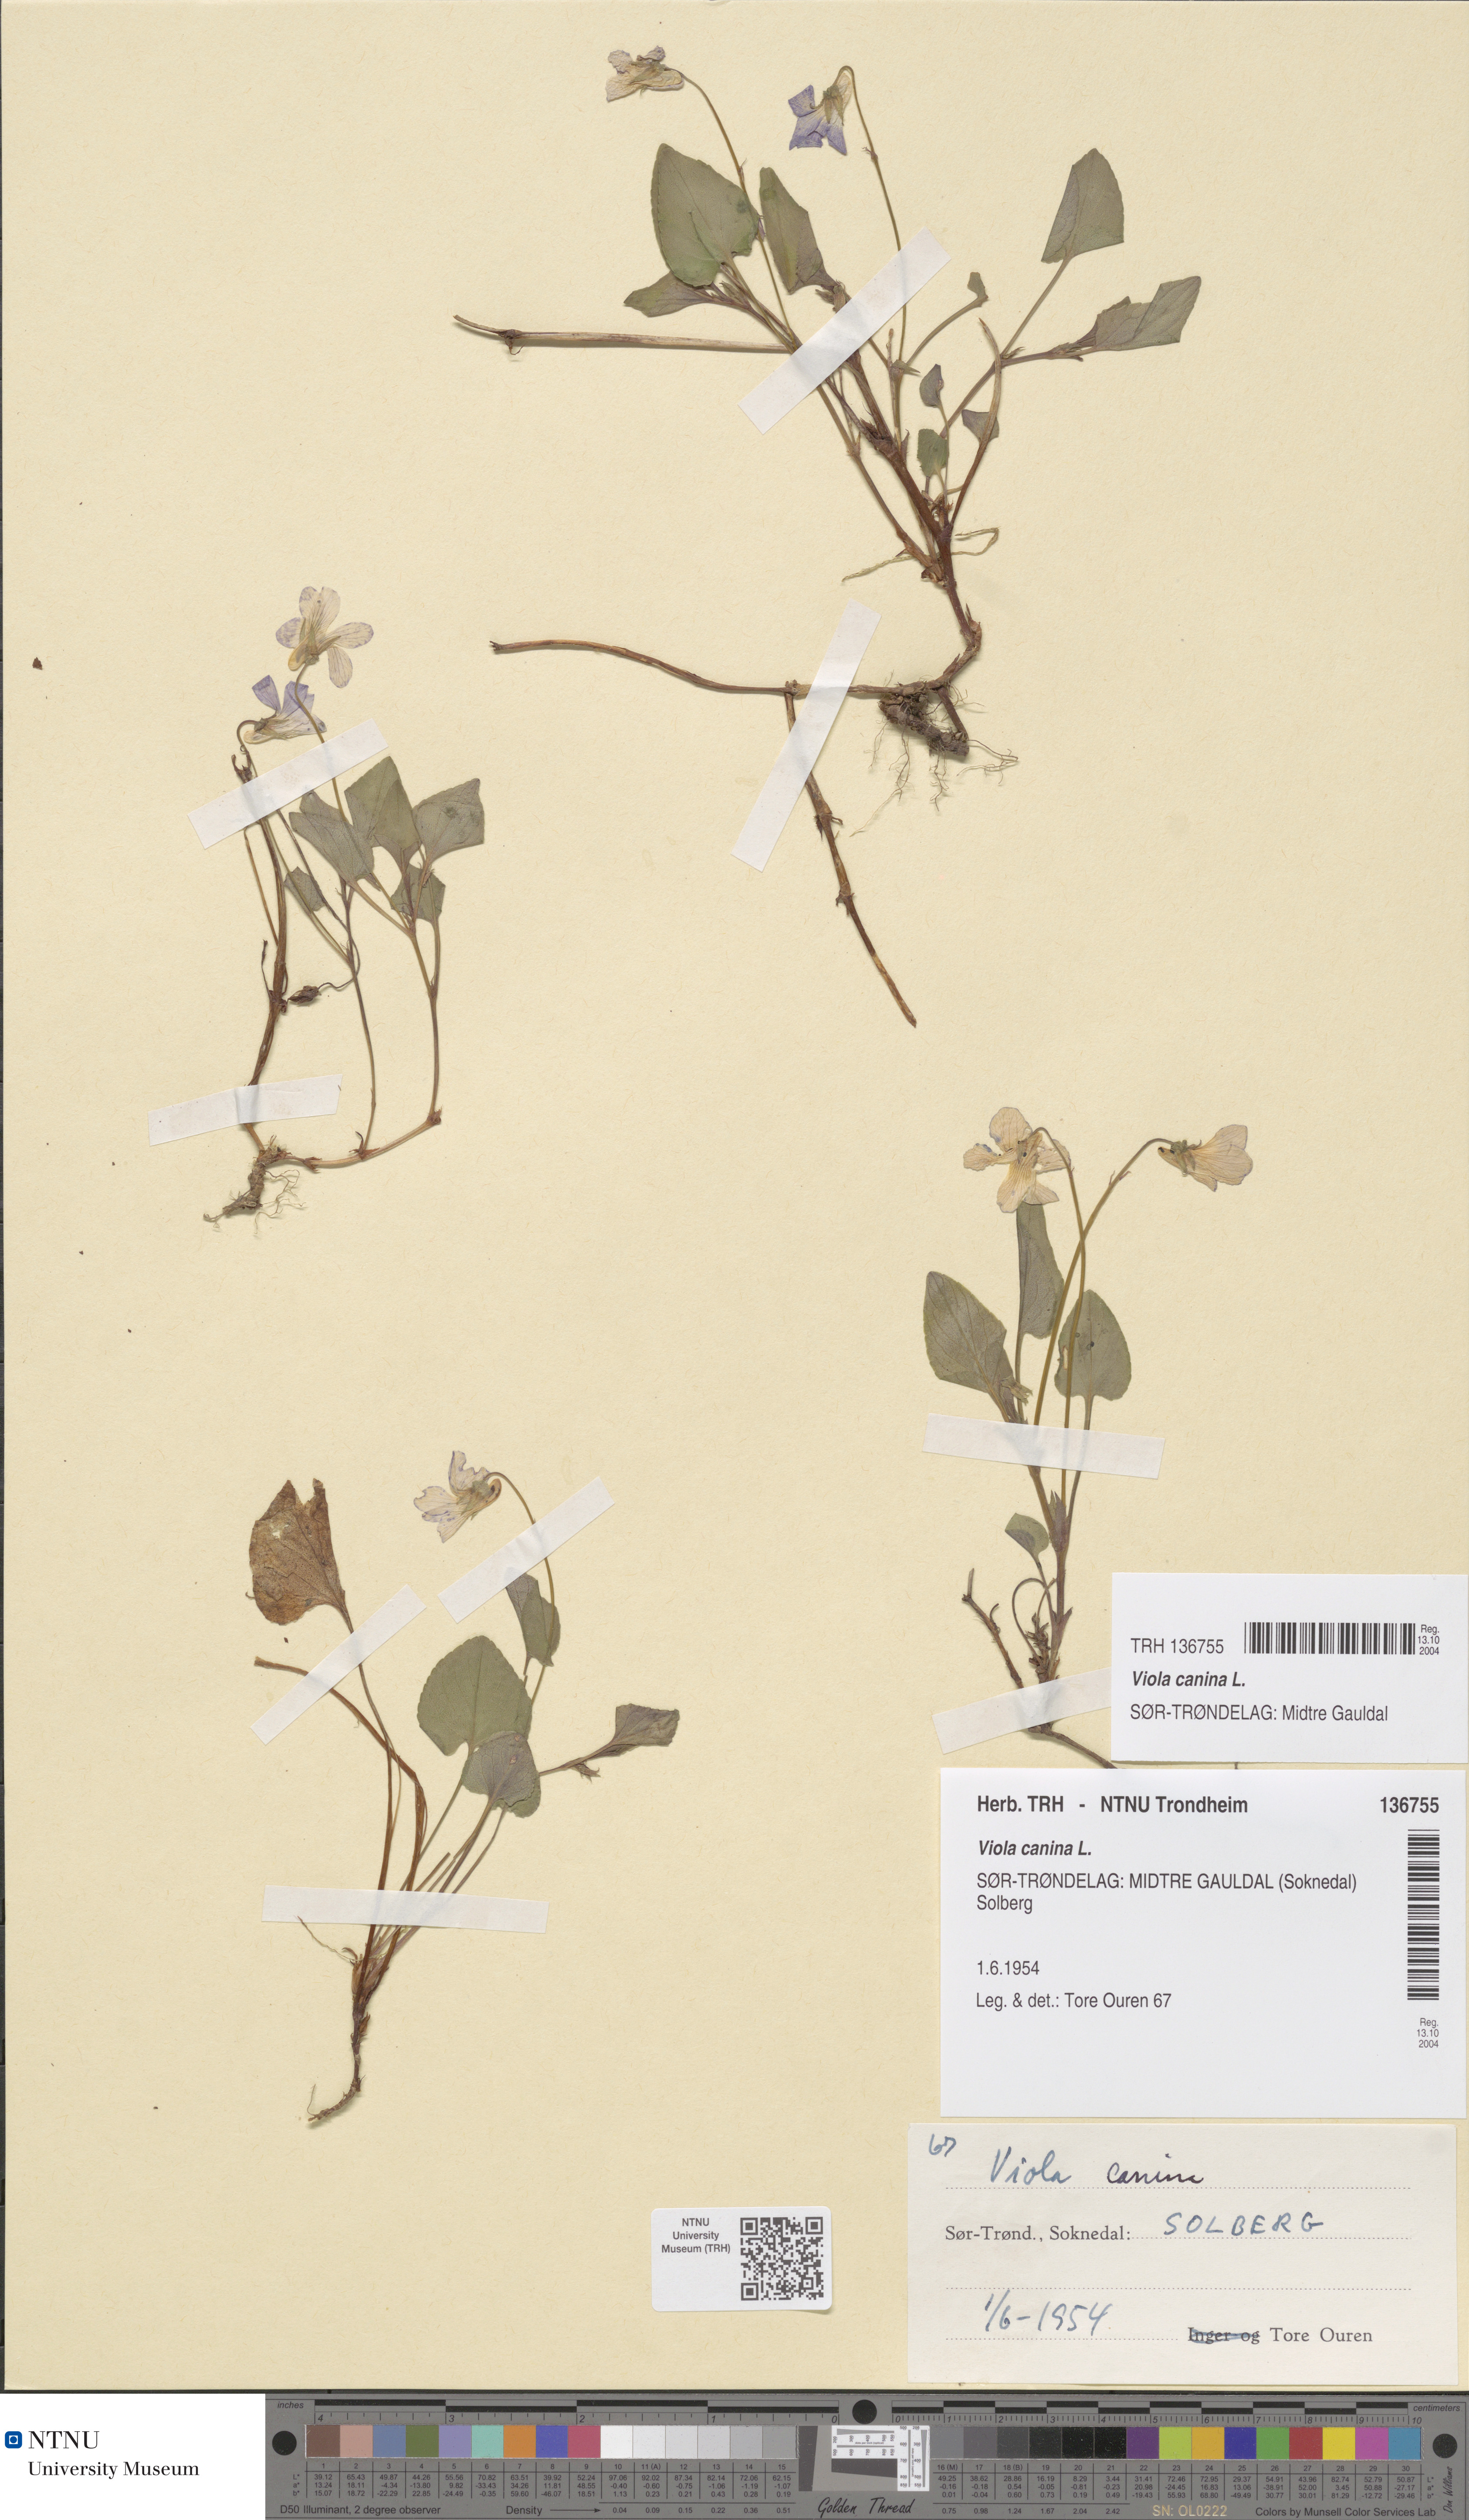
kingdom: Plantae
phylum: Tracheophyta
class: Magnoliopsida
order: Malpighiales
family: Violaceae
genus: Viola
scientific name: Viola canina
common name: Heath dog-violet
